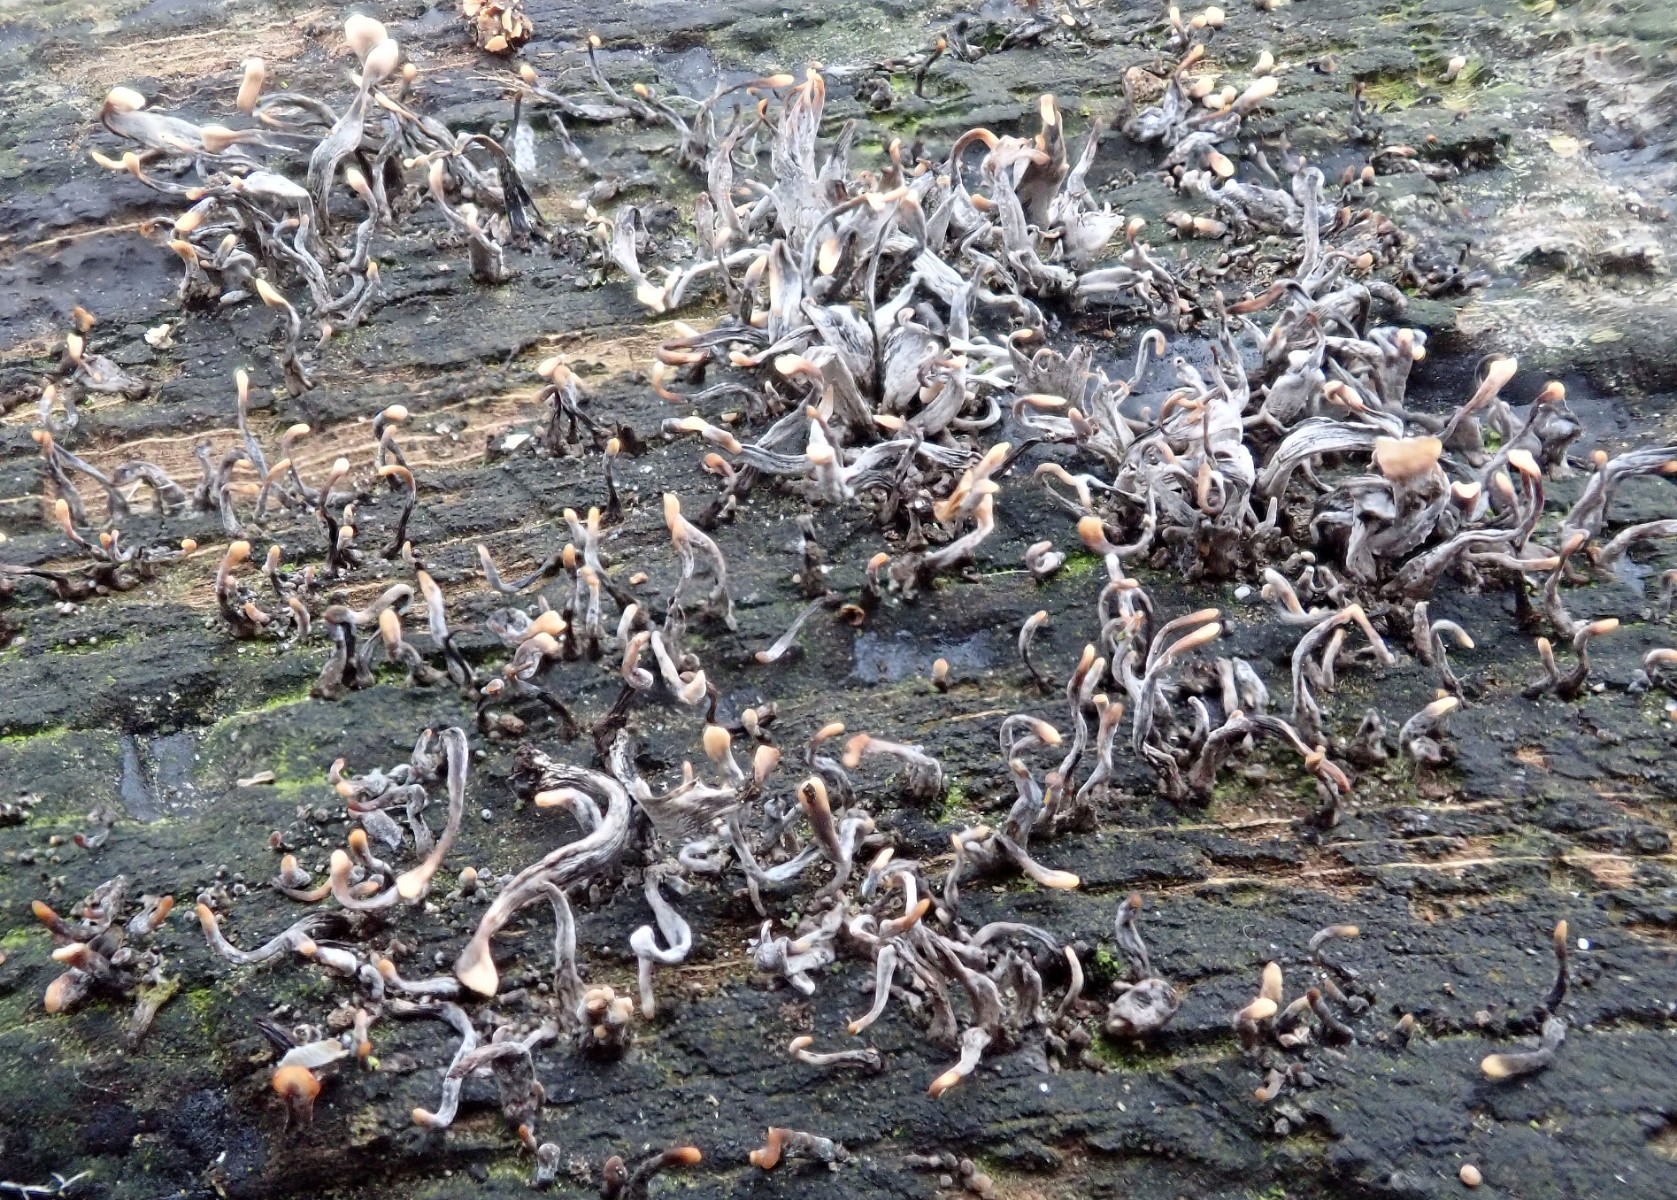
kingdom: Fungi
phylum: Ascomycota
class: Sordariomycetes
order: Xylariales
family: Xylariaceae
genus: Xylaria
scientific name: Xylaria hypoxylon
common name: grenet stødsvamp
